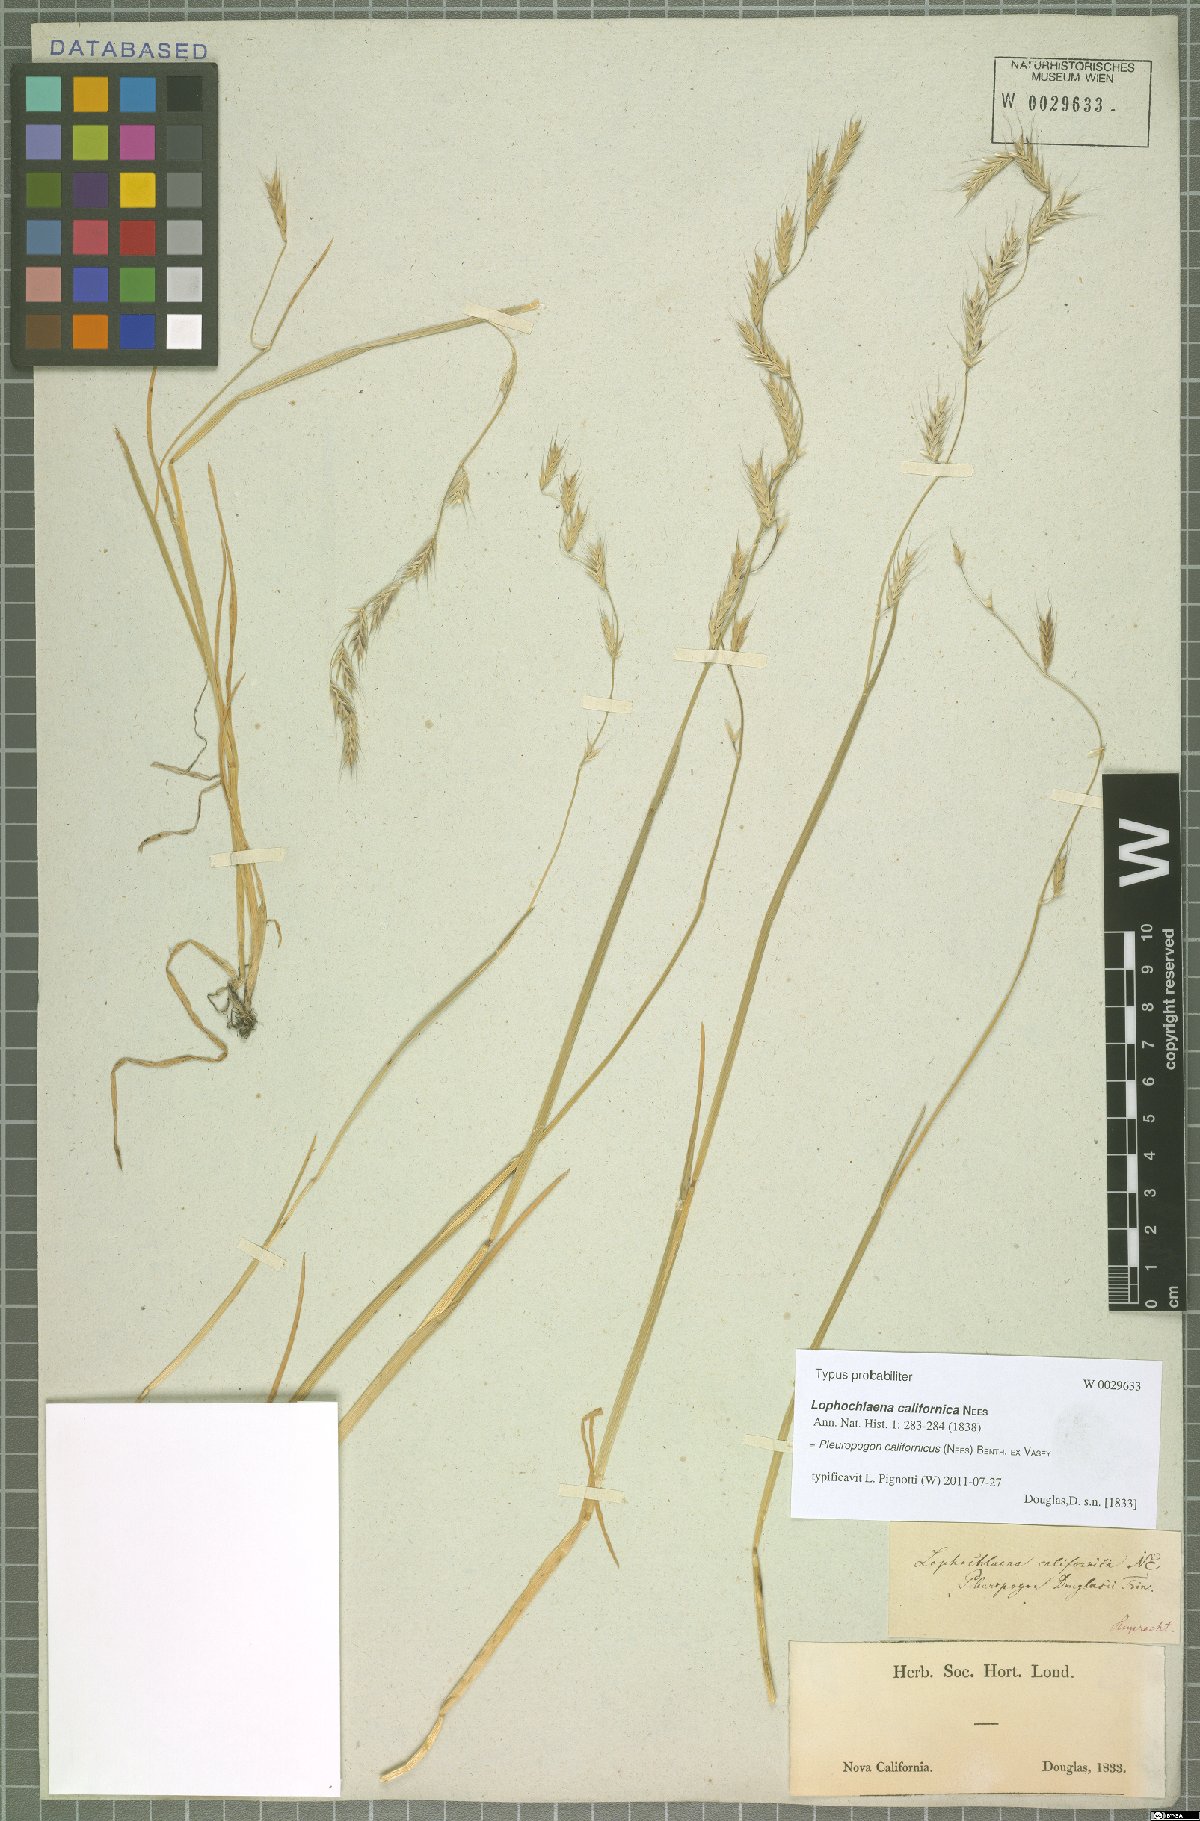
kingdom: Plantae
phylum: Tracheophyta
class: Liliopsida
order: Poales
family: Poaceae
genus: Pleuropogon
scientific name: Pleuropogon californicus
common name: California semaphore grass
